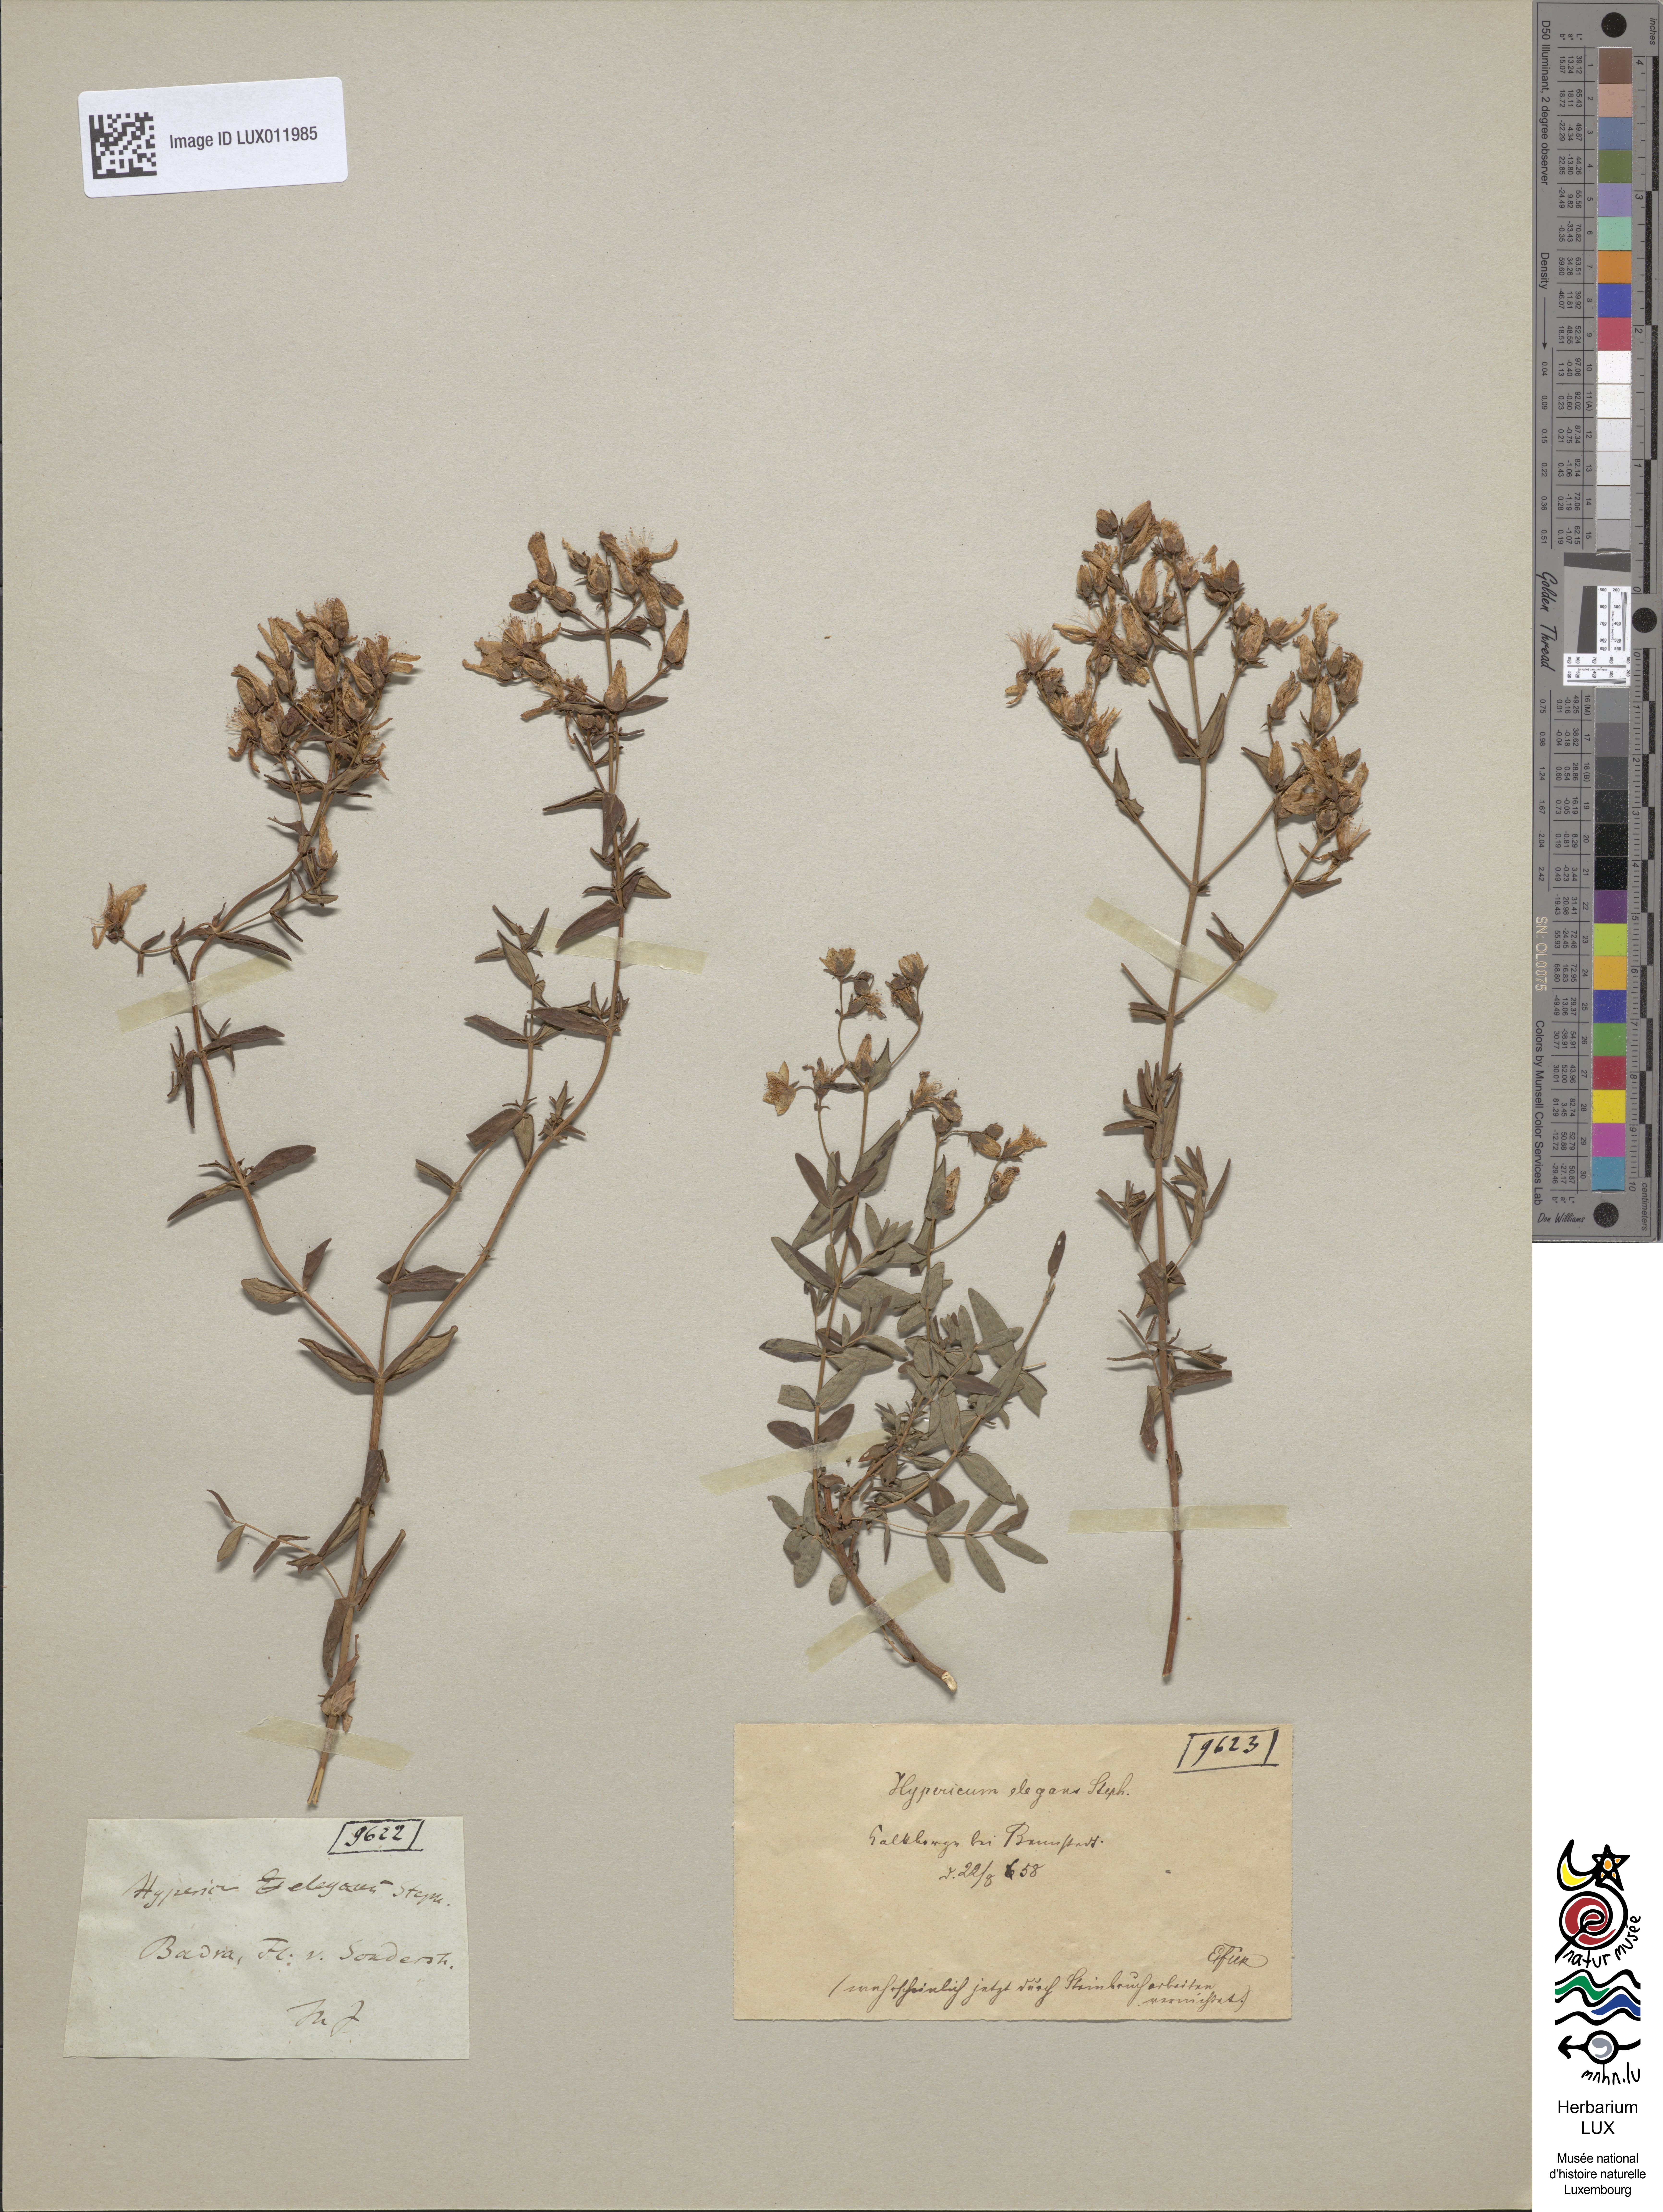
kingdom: Plantae
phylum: Tracheophyta
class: Magnoliopsida
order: Malpighiales
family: Hypericaceae
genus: Hypericum
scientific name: Hypericum elegans
